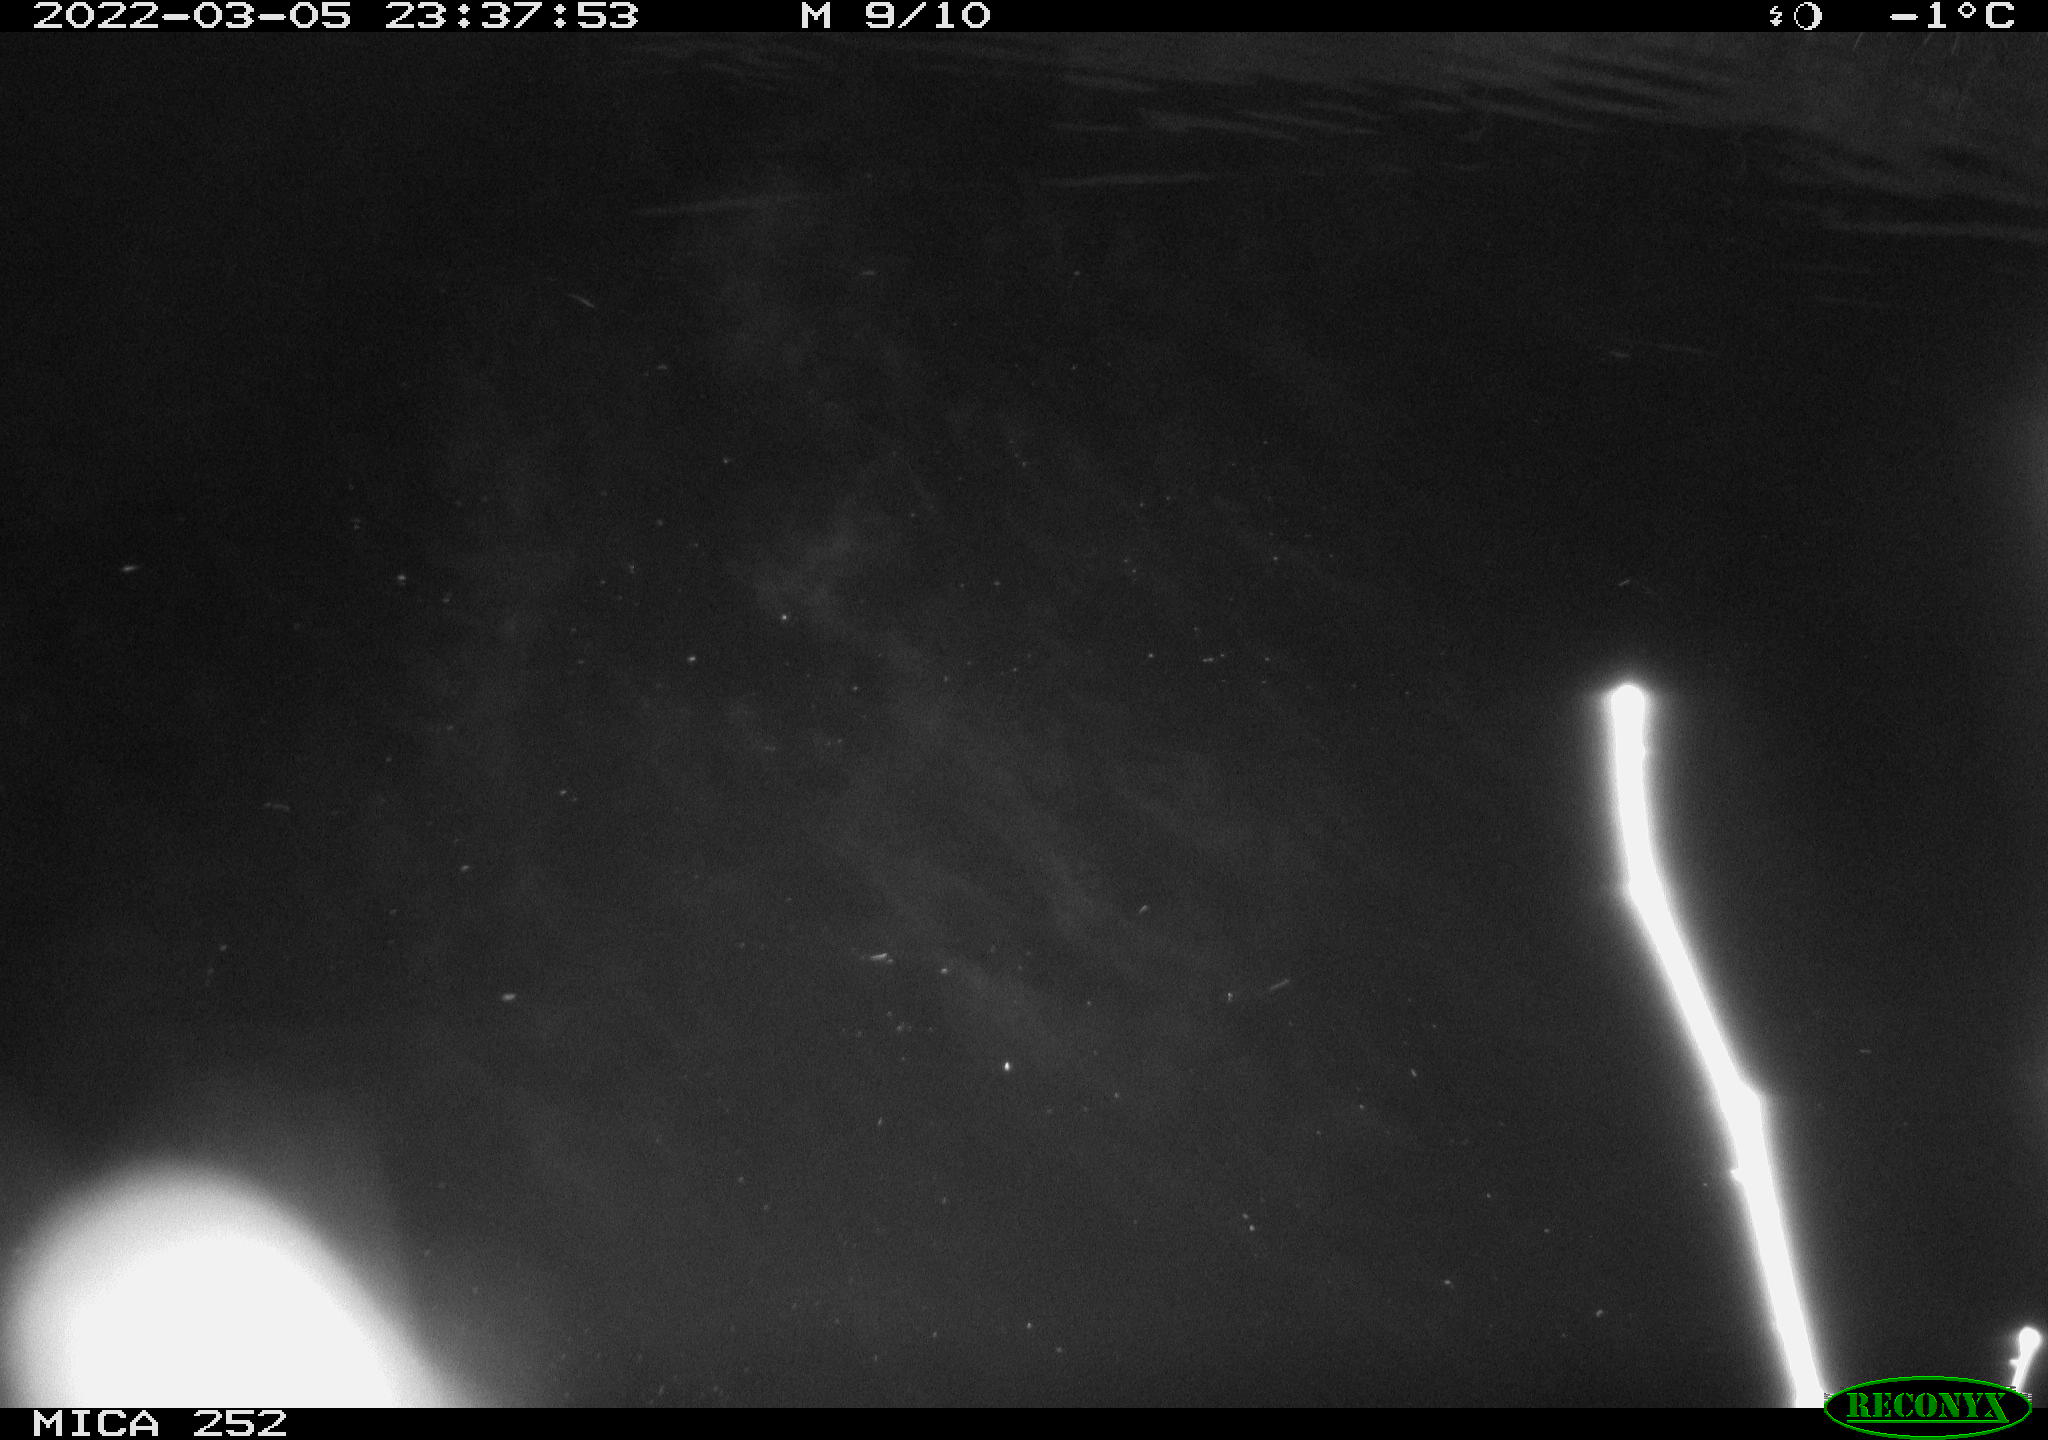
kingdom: Animalia
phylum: Chordata
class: Mammalia
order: Rodentia
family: Castoridae
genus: Castor
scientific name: Castor fiber
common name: Eurasian beaver
